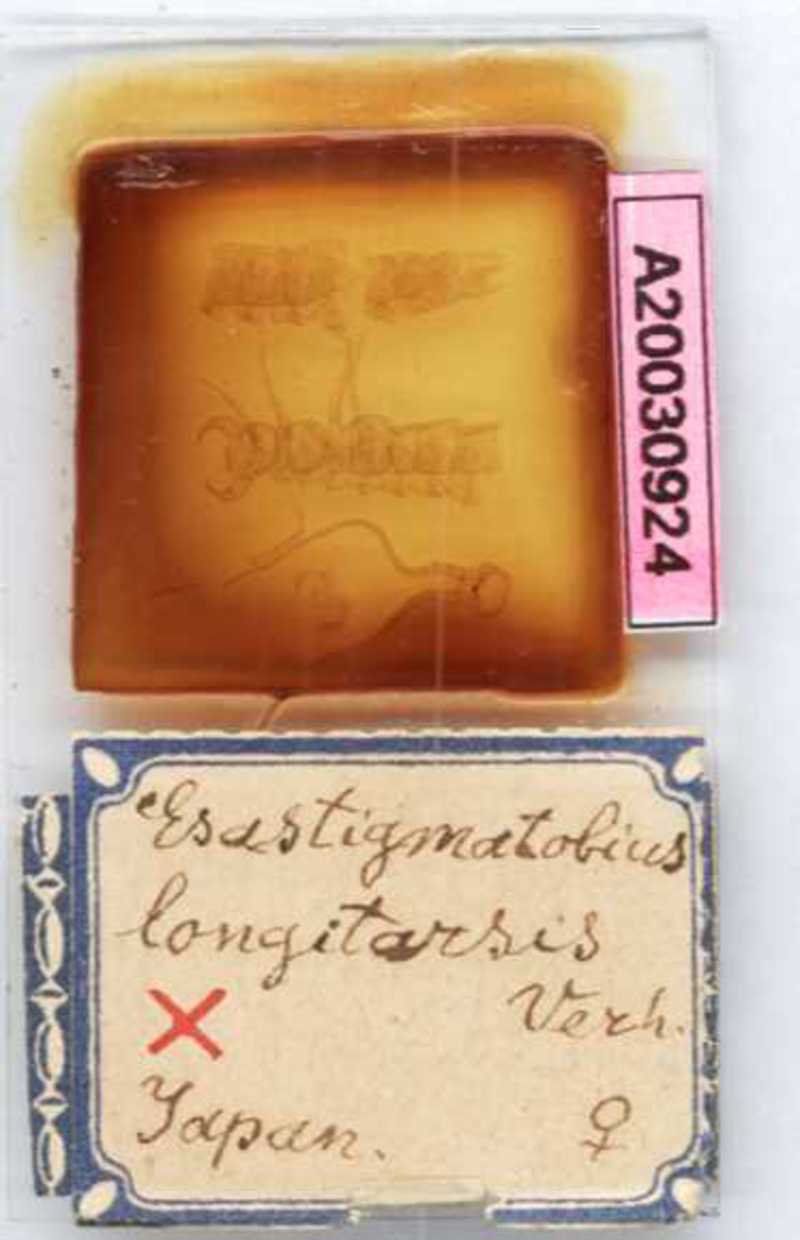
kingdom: Animalia
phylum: Arthropoda
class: Chilopoda
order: Lithobiomorpha
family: Henicopidae
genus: Cermatobius
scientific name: Cermatobius longitarsis
